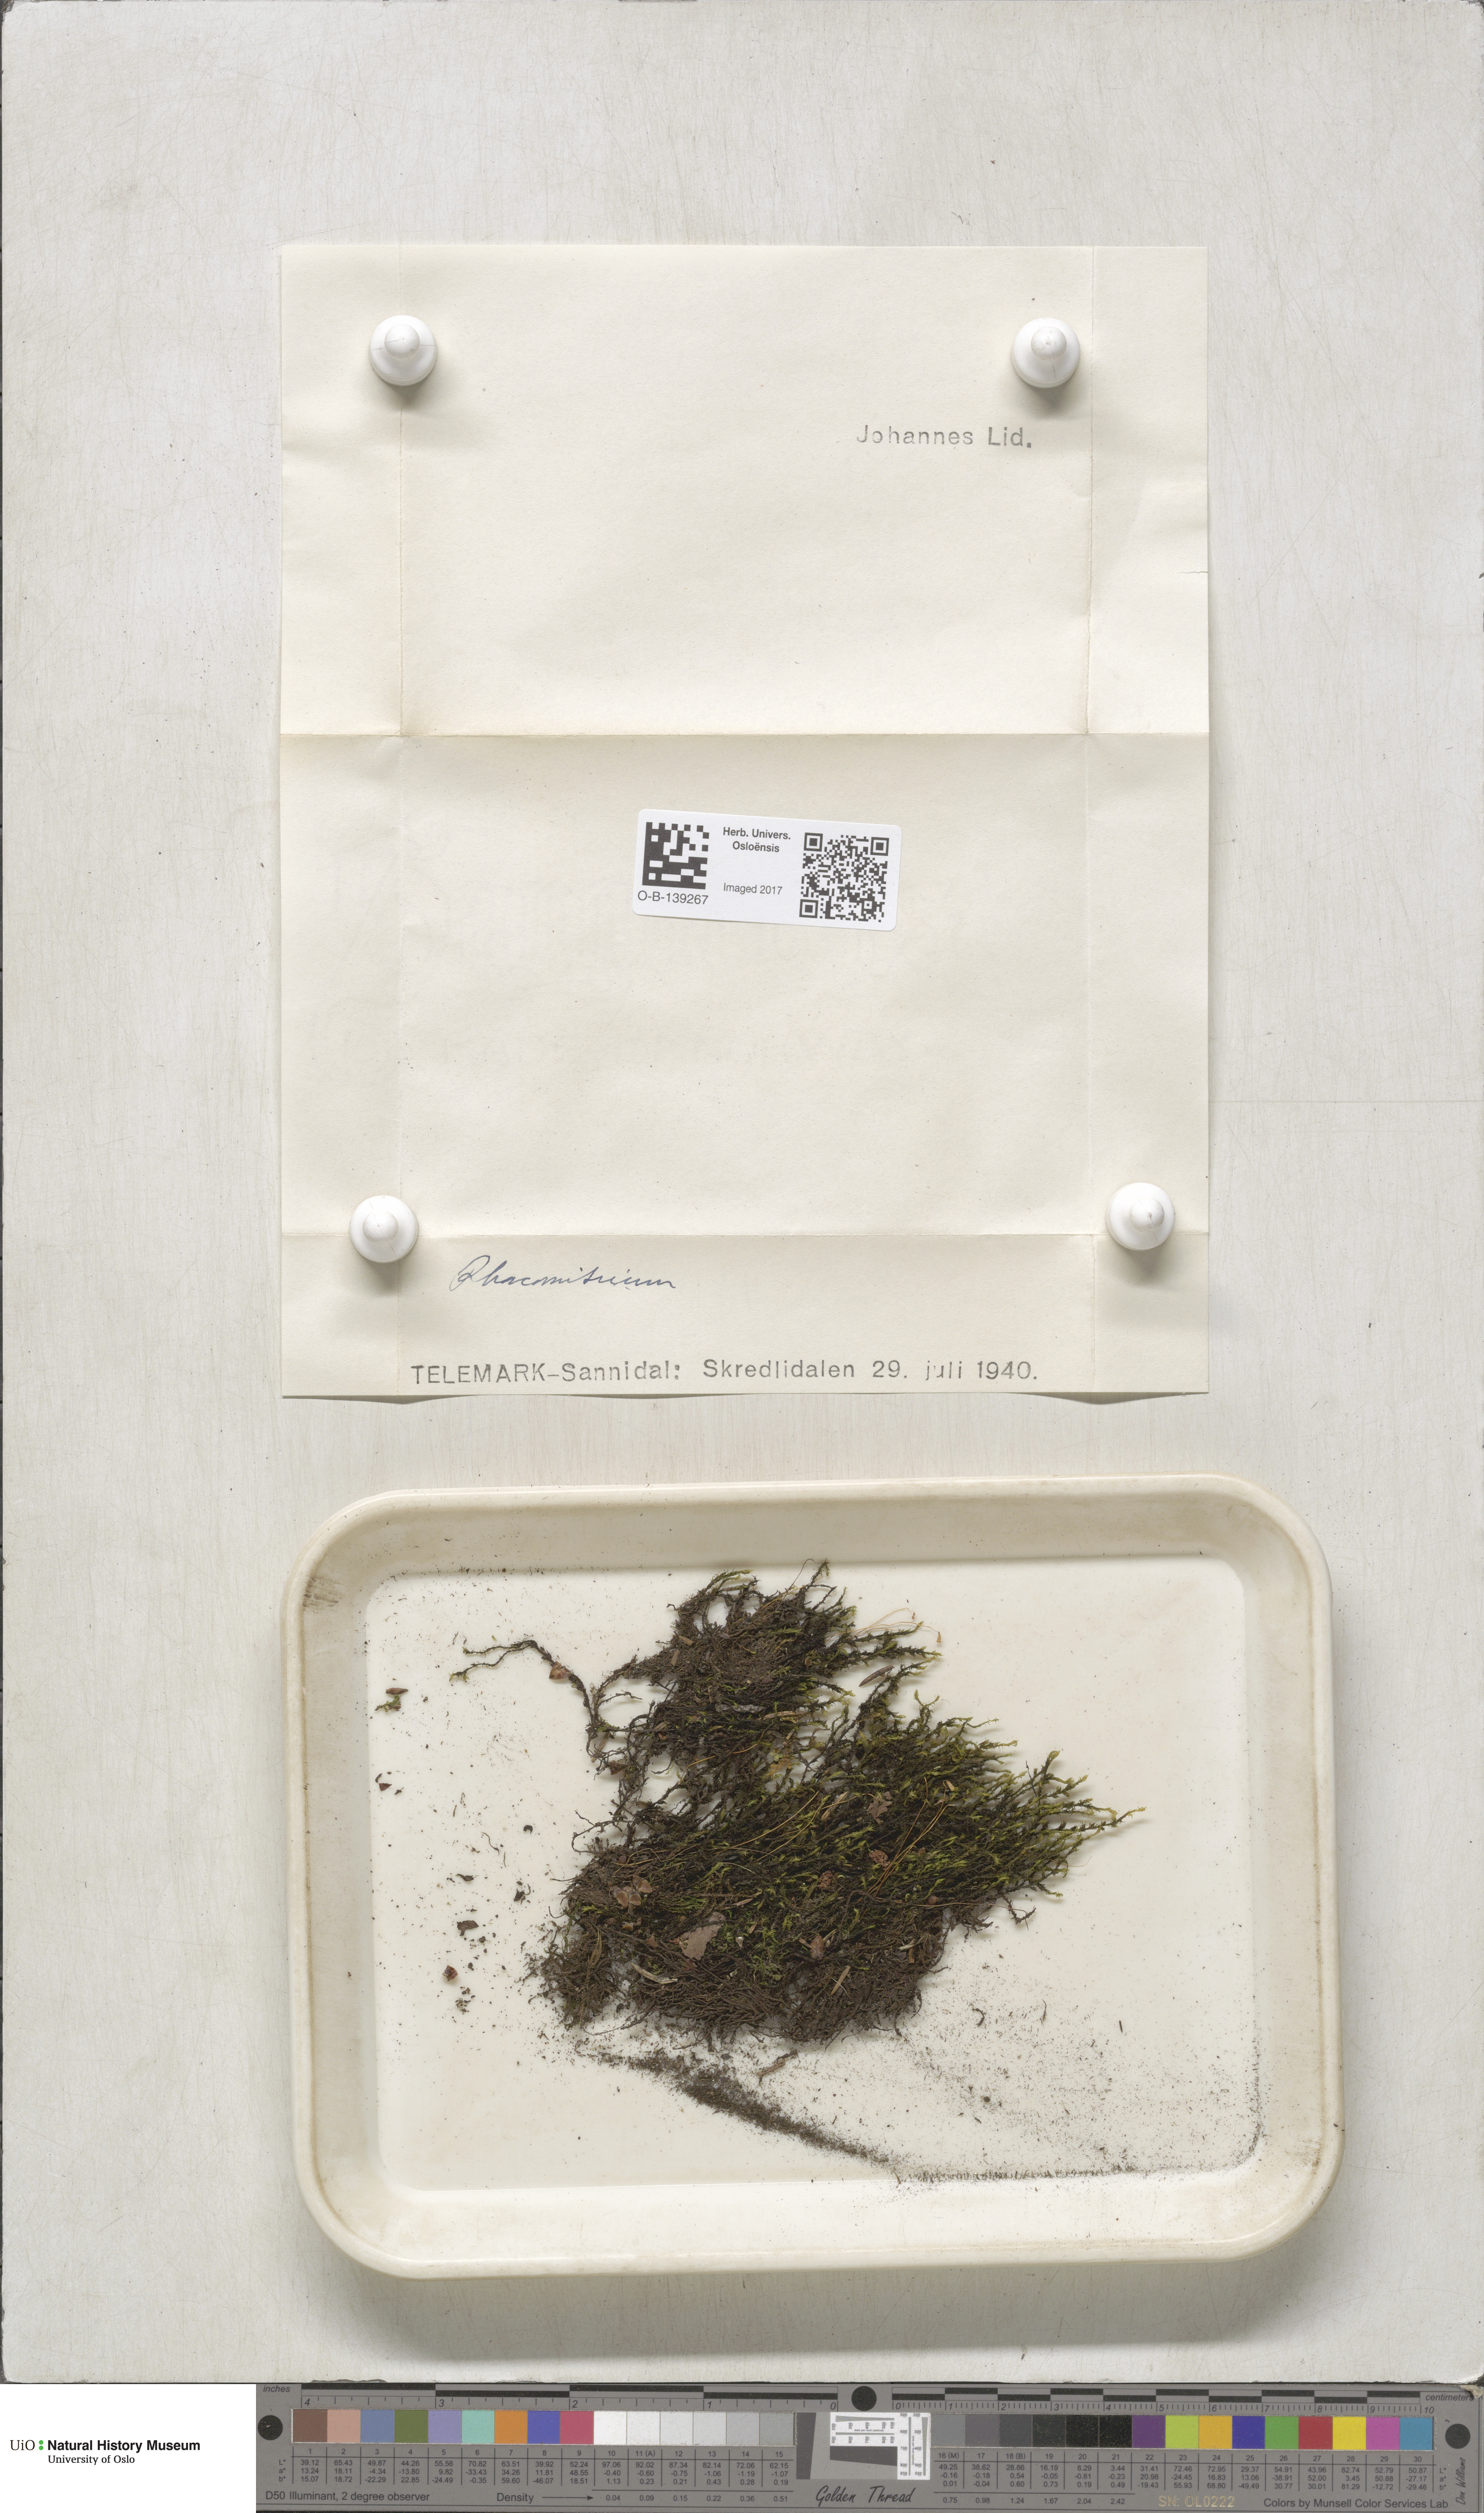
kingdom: Plantae
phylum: Bryophyta
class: Bryopsida
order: Grimmiales
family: Grimmiaceae
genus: Racomitrium
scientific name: Racomitrium
